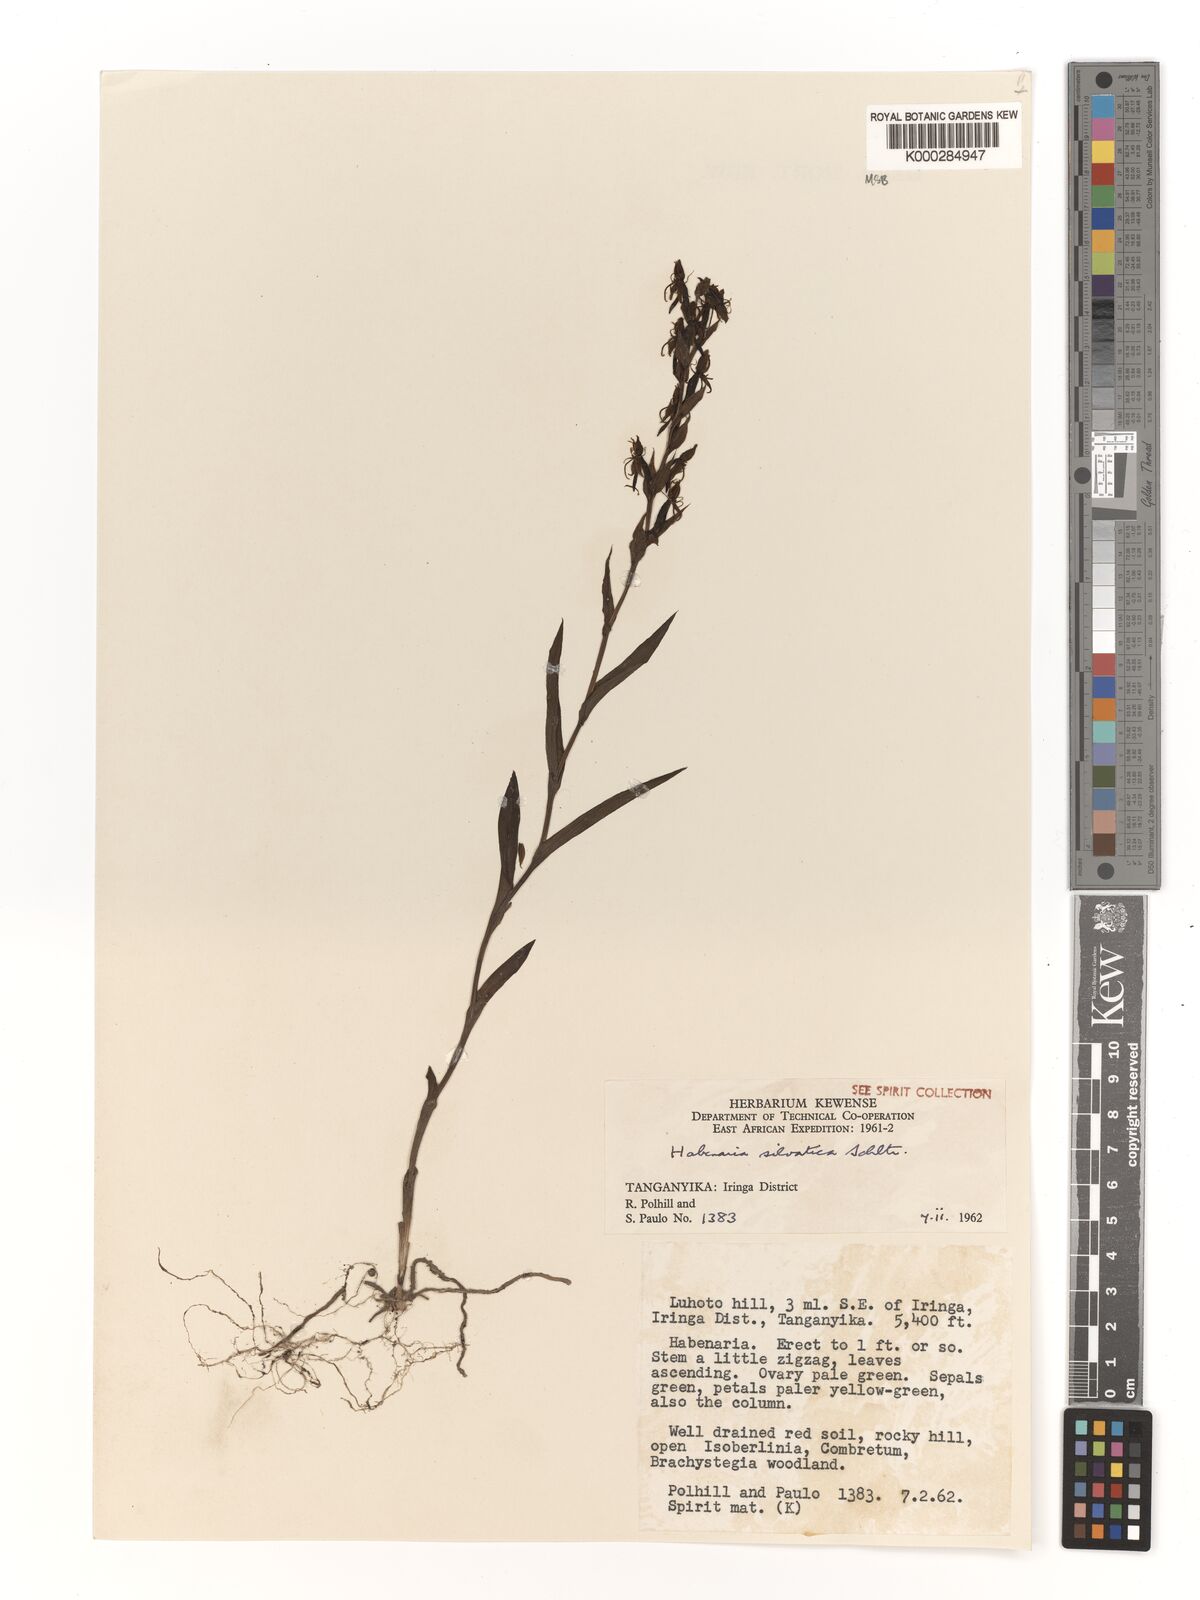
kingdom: Plantae
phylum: Tracheophyta
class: Liliopsida
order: Asparagales
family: Orchidaceae
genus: Habenaria
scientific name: Habenaria silvatica
